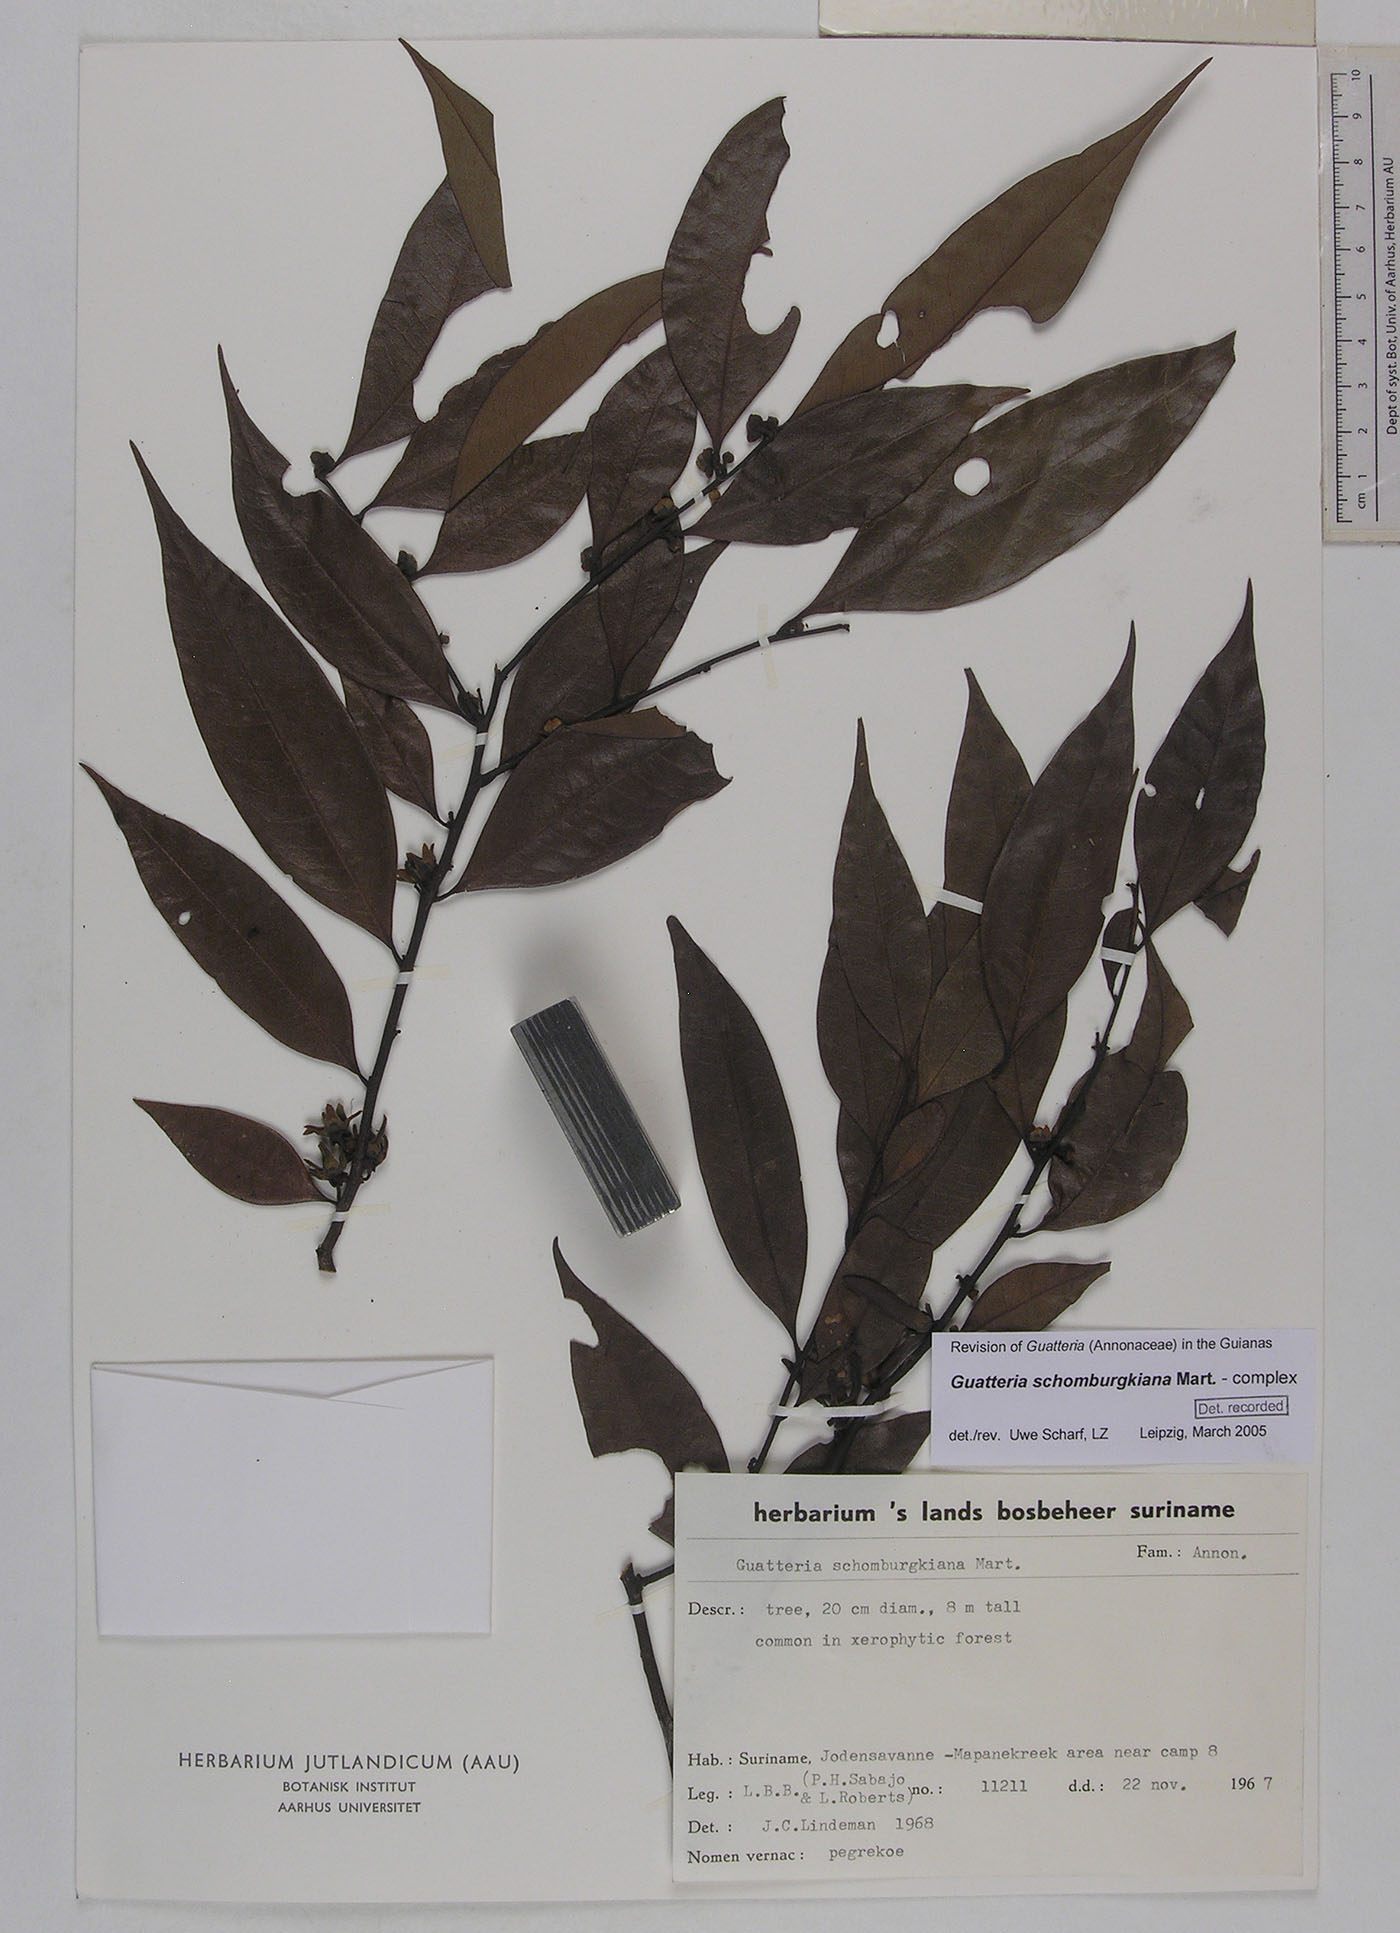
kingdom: Plantae
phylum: Tracheophyta
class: Magnoliopsida
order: Magnoliales
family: Annonaceae
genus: Guatteria
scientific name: Guatteria schomburgkiana
